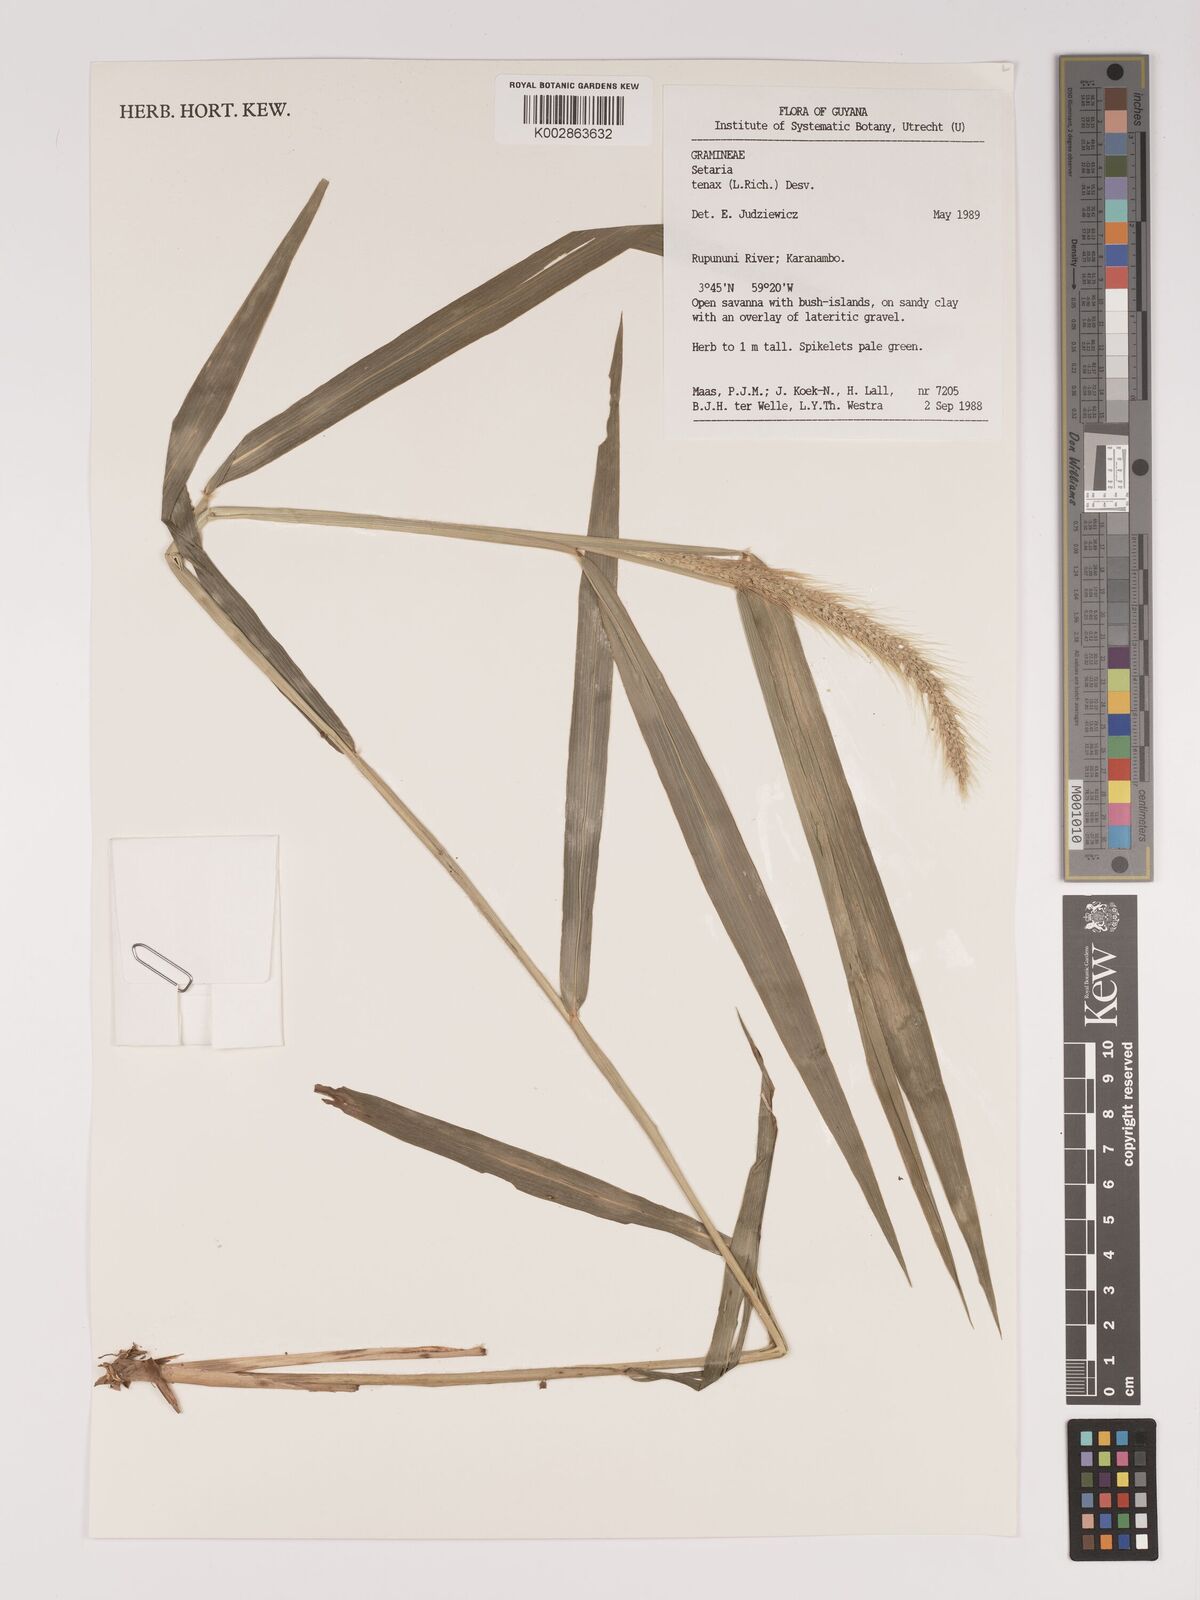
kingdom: Plantae
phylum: Tracheophyta
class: Liliopsida
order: Poales
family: Poaceae
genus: Setaria
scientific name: Setaria tenax
